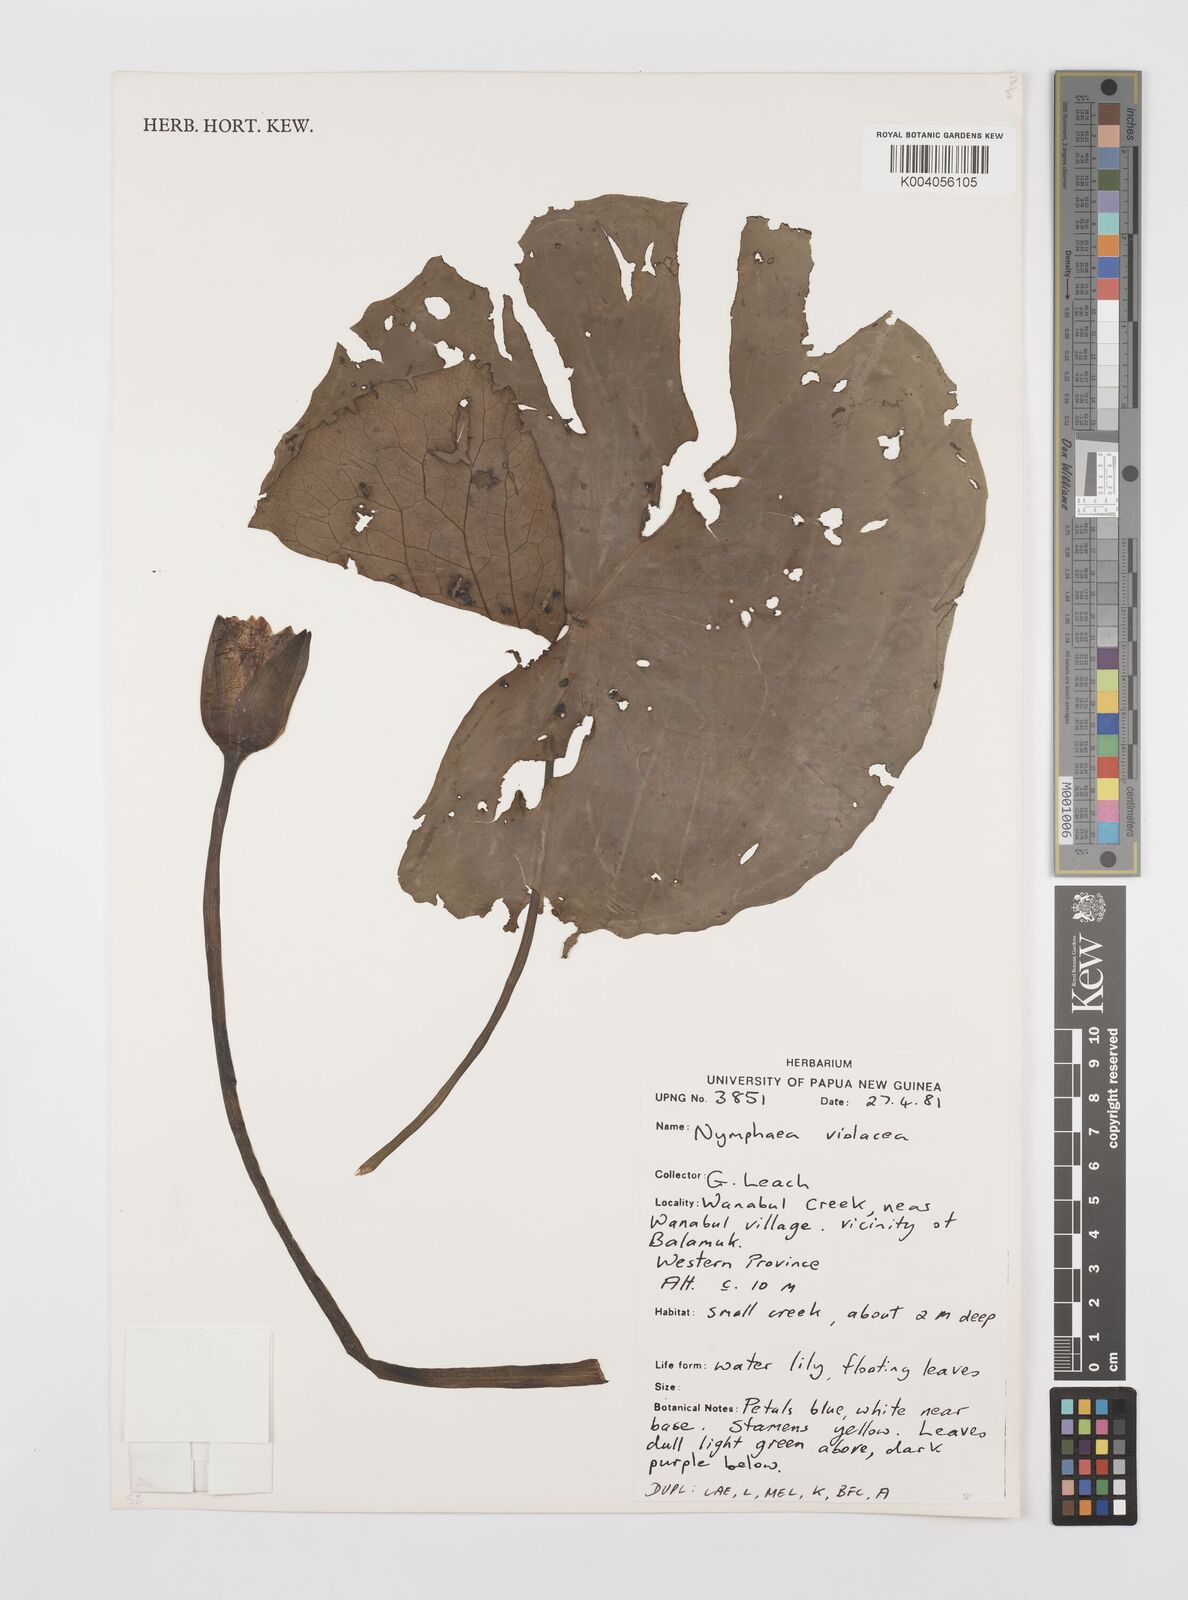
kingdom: Plantae
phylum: Tracheophyta
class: Magnoliopsida
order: Nymphaeales
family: Nymphaeaceae
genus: Nymphaea
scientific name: Nymphaea violacea
